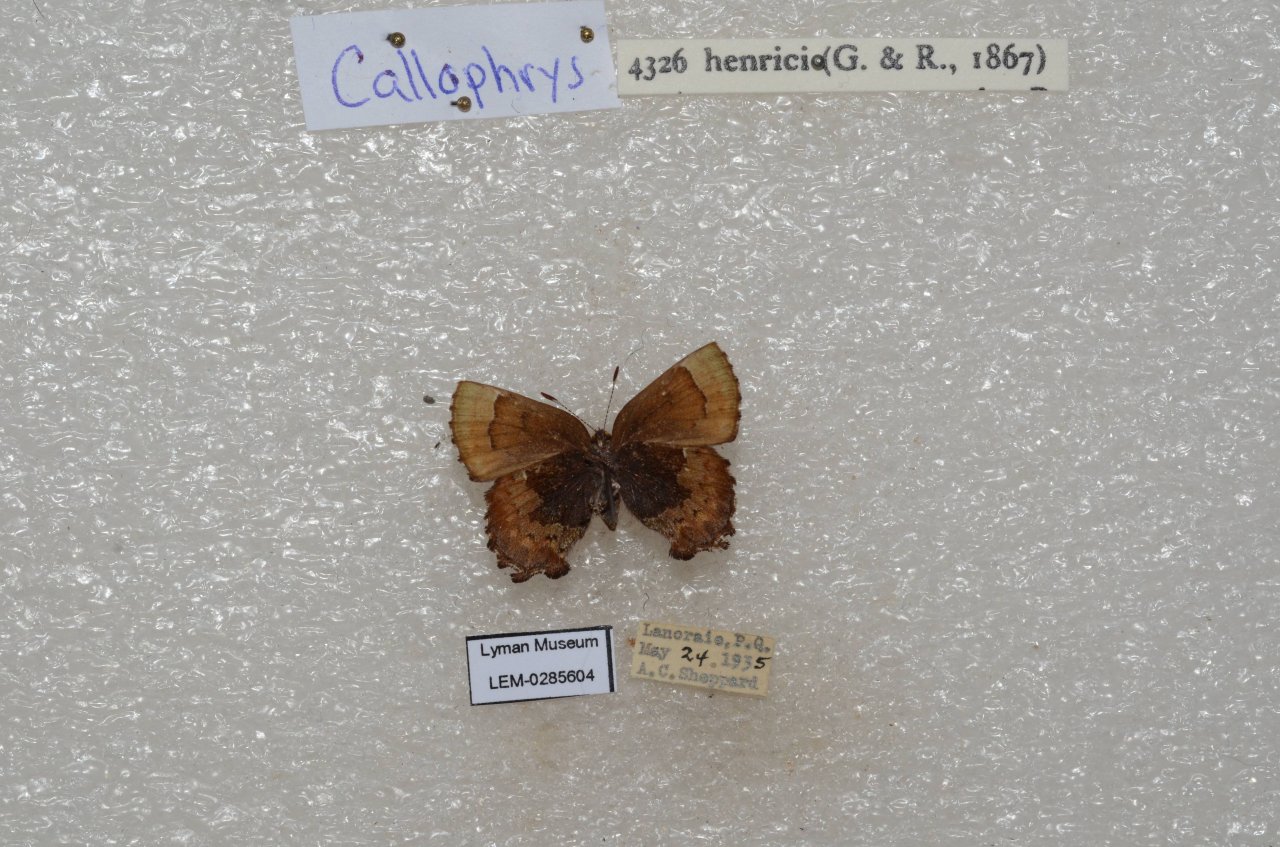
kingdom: Animalia
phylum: Arthropoda
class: Insecta
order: Lepidoptera
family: Lycaenidae
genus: Incisalia
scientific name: Incisalia henrici
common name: Henry's Elfin
